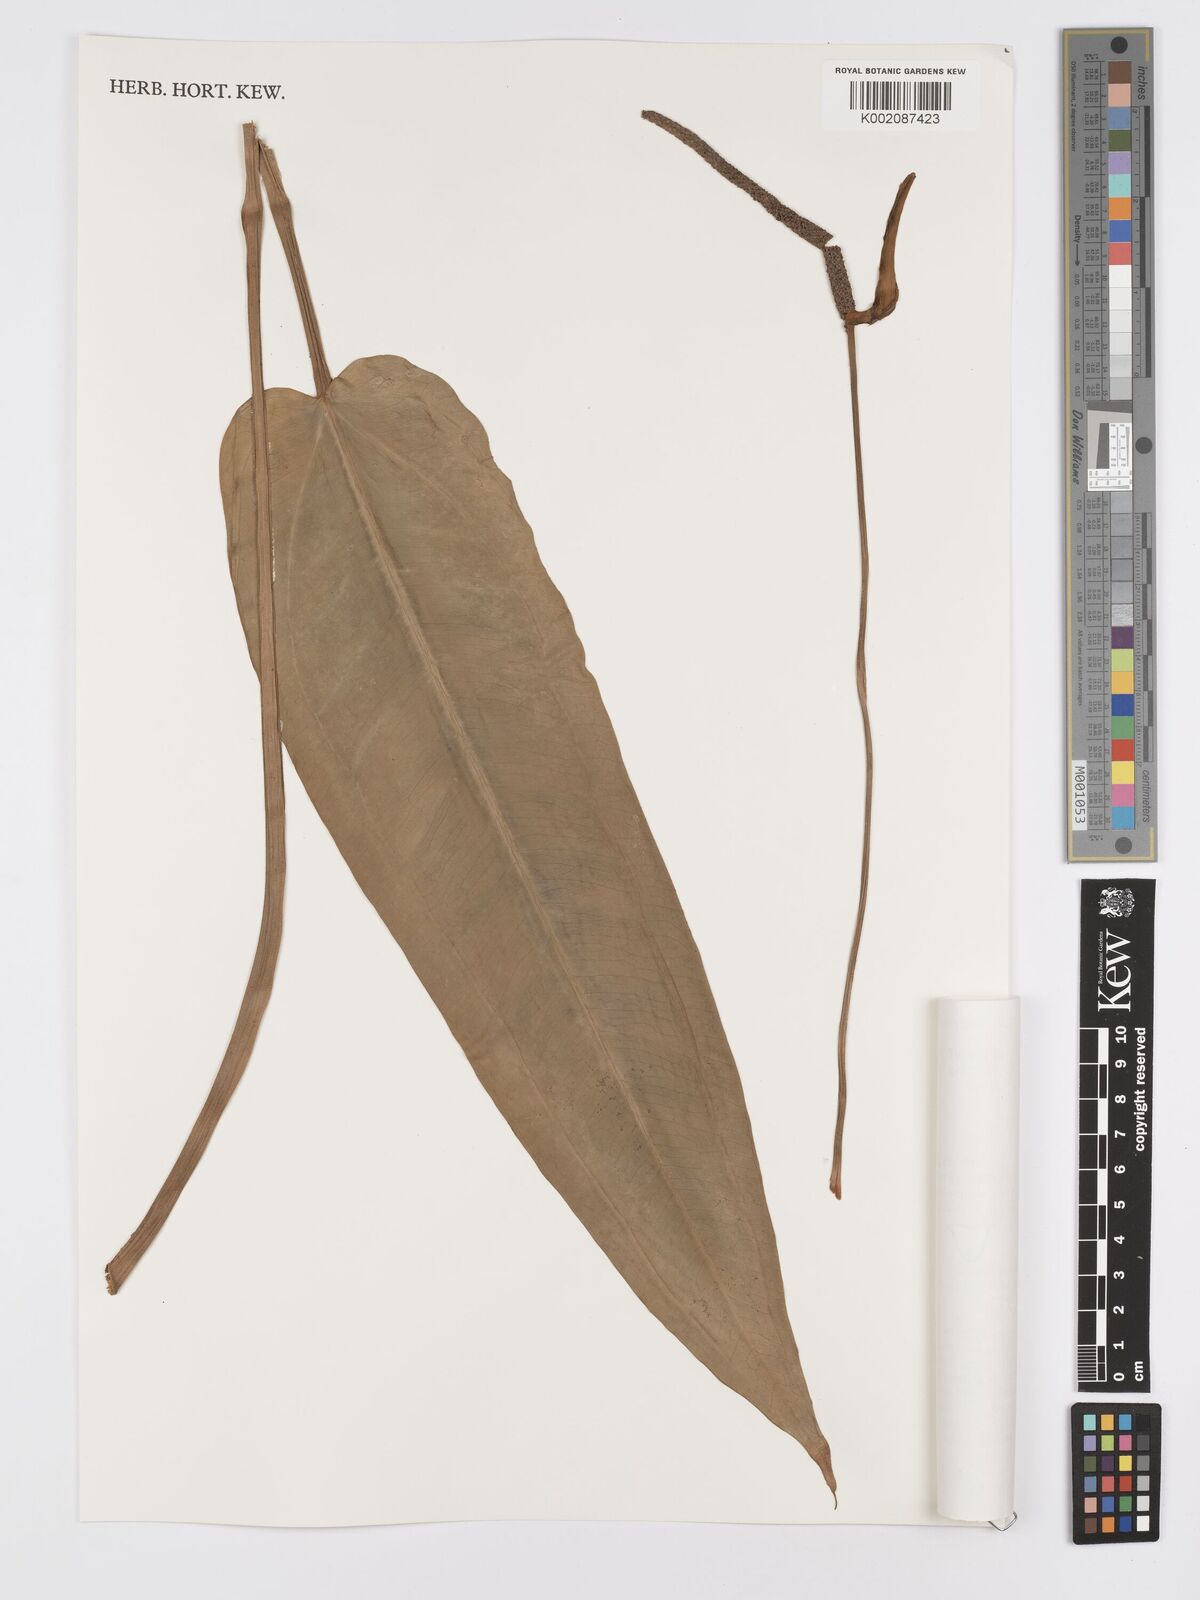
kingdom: Plantae
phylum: Tracheophyta
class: Liliopsida
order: Alismatales
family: Araceae
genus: Anthurium
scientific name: Anthurium
